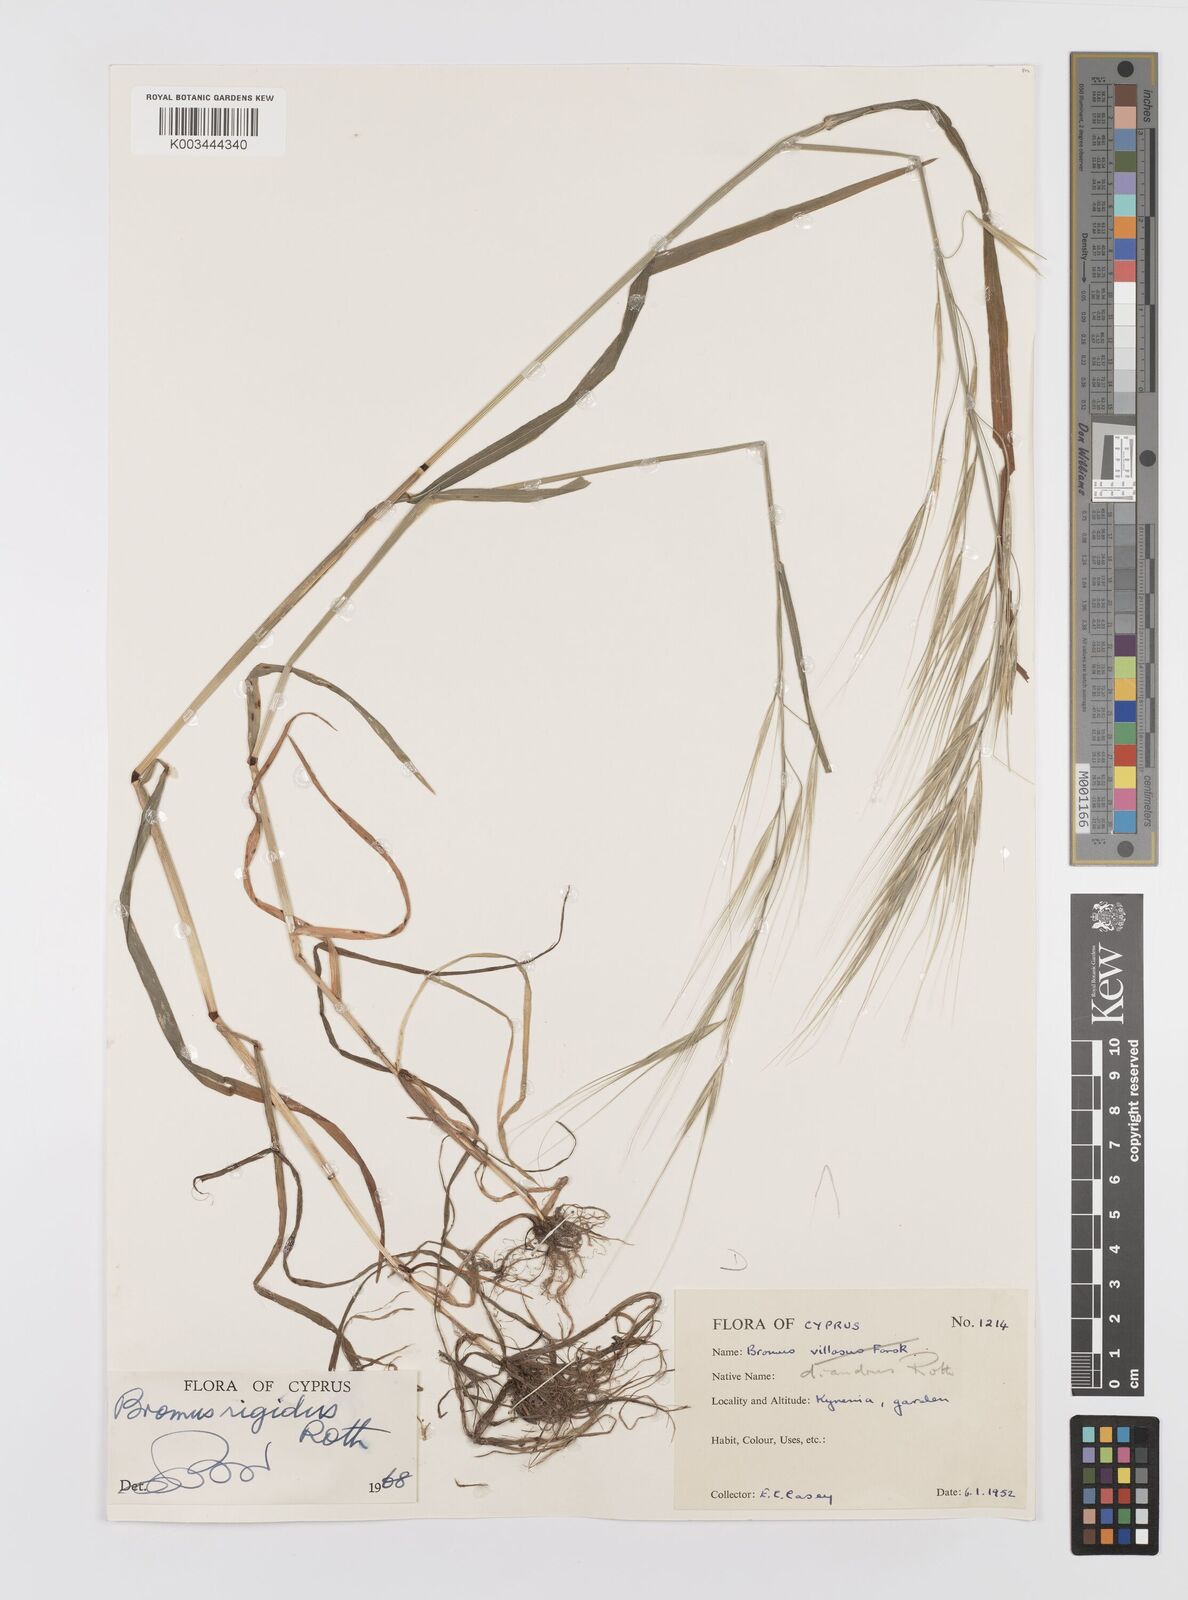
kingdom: Plantae
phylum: Tracheophyta
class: Liliopsida
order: Poales
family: Poaceae
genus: Bromus
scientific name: Bromus diandrus
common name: Ripgut brome
